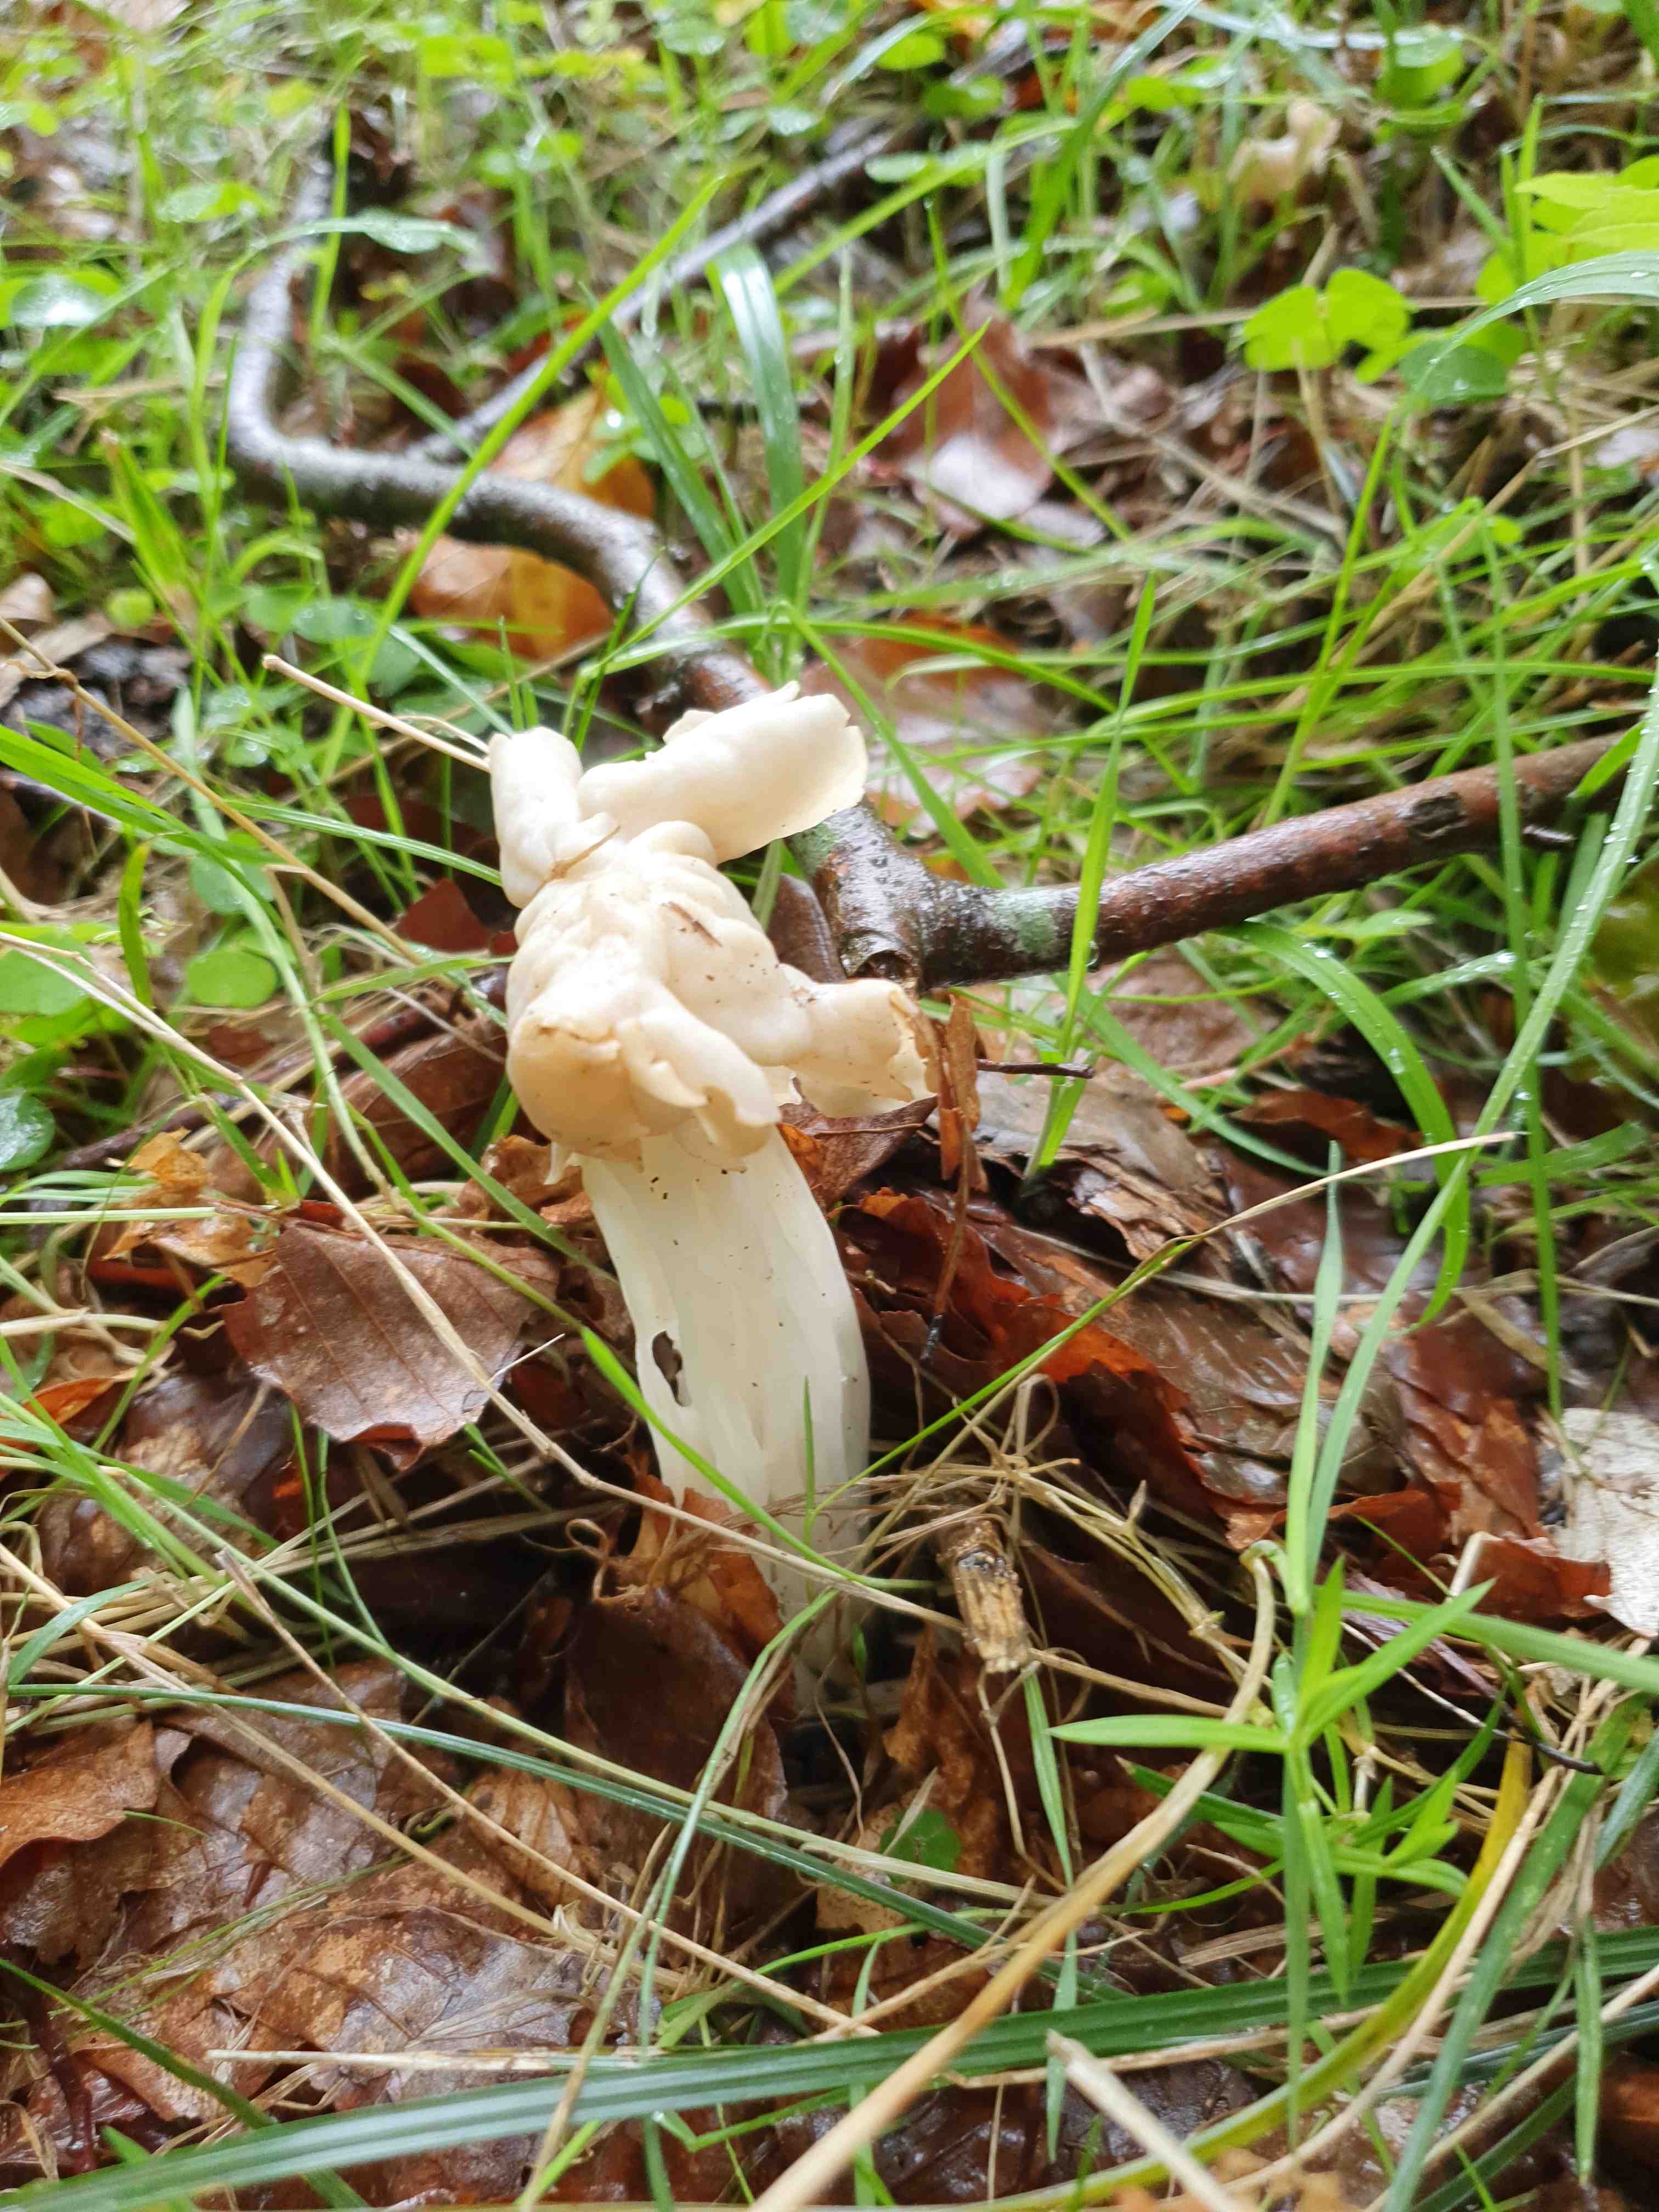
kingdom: Fungi
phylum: Ascomycota
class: Pezizomycetes
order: Pezizales
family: Helvellaceae
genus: Helvella
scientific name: Helvella crispa
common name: kruset foldhat
